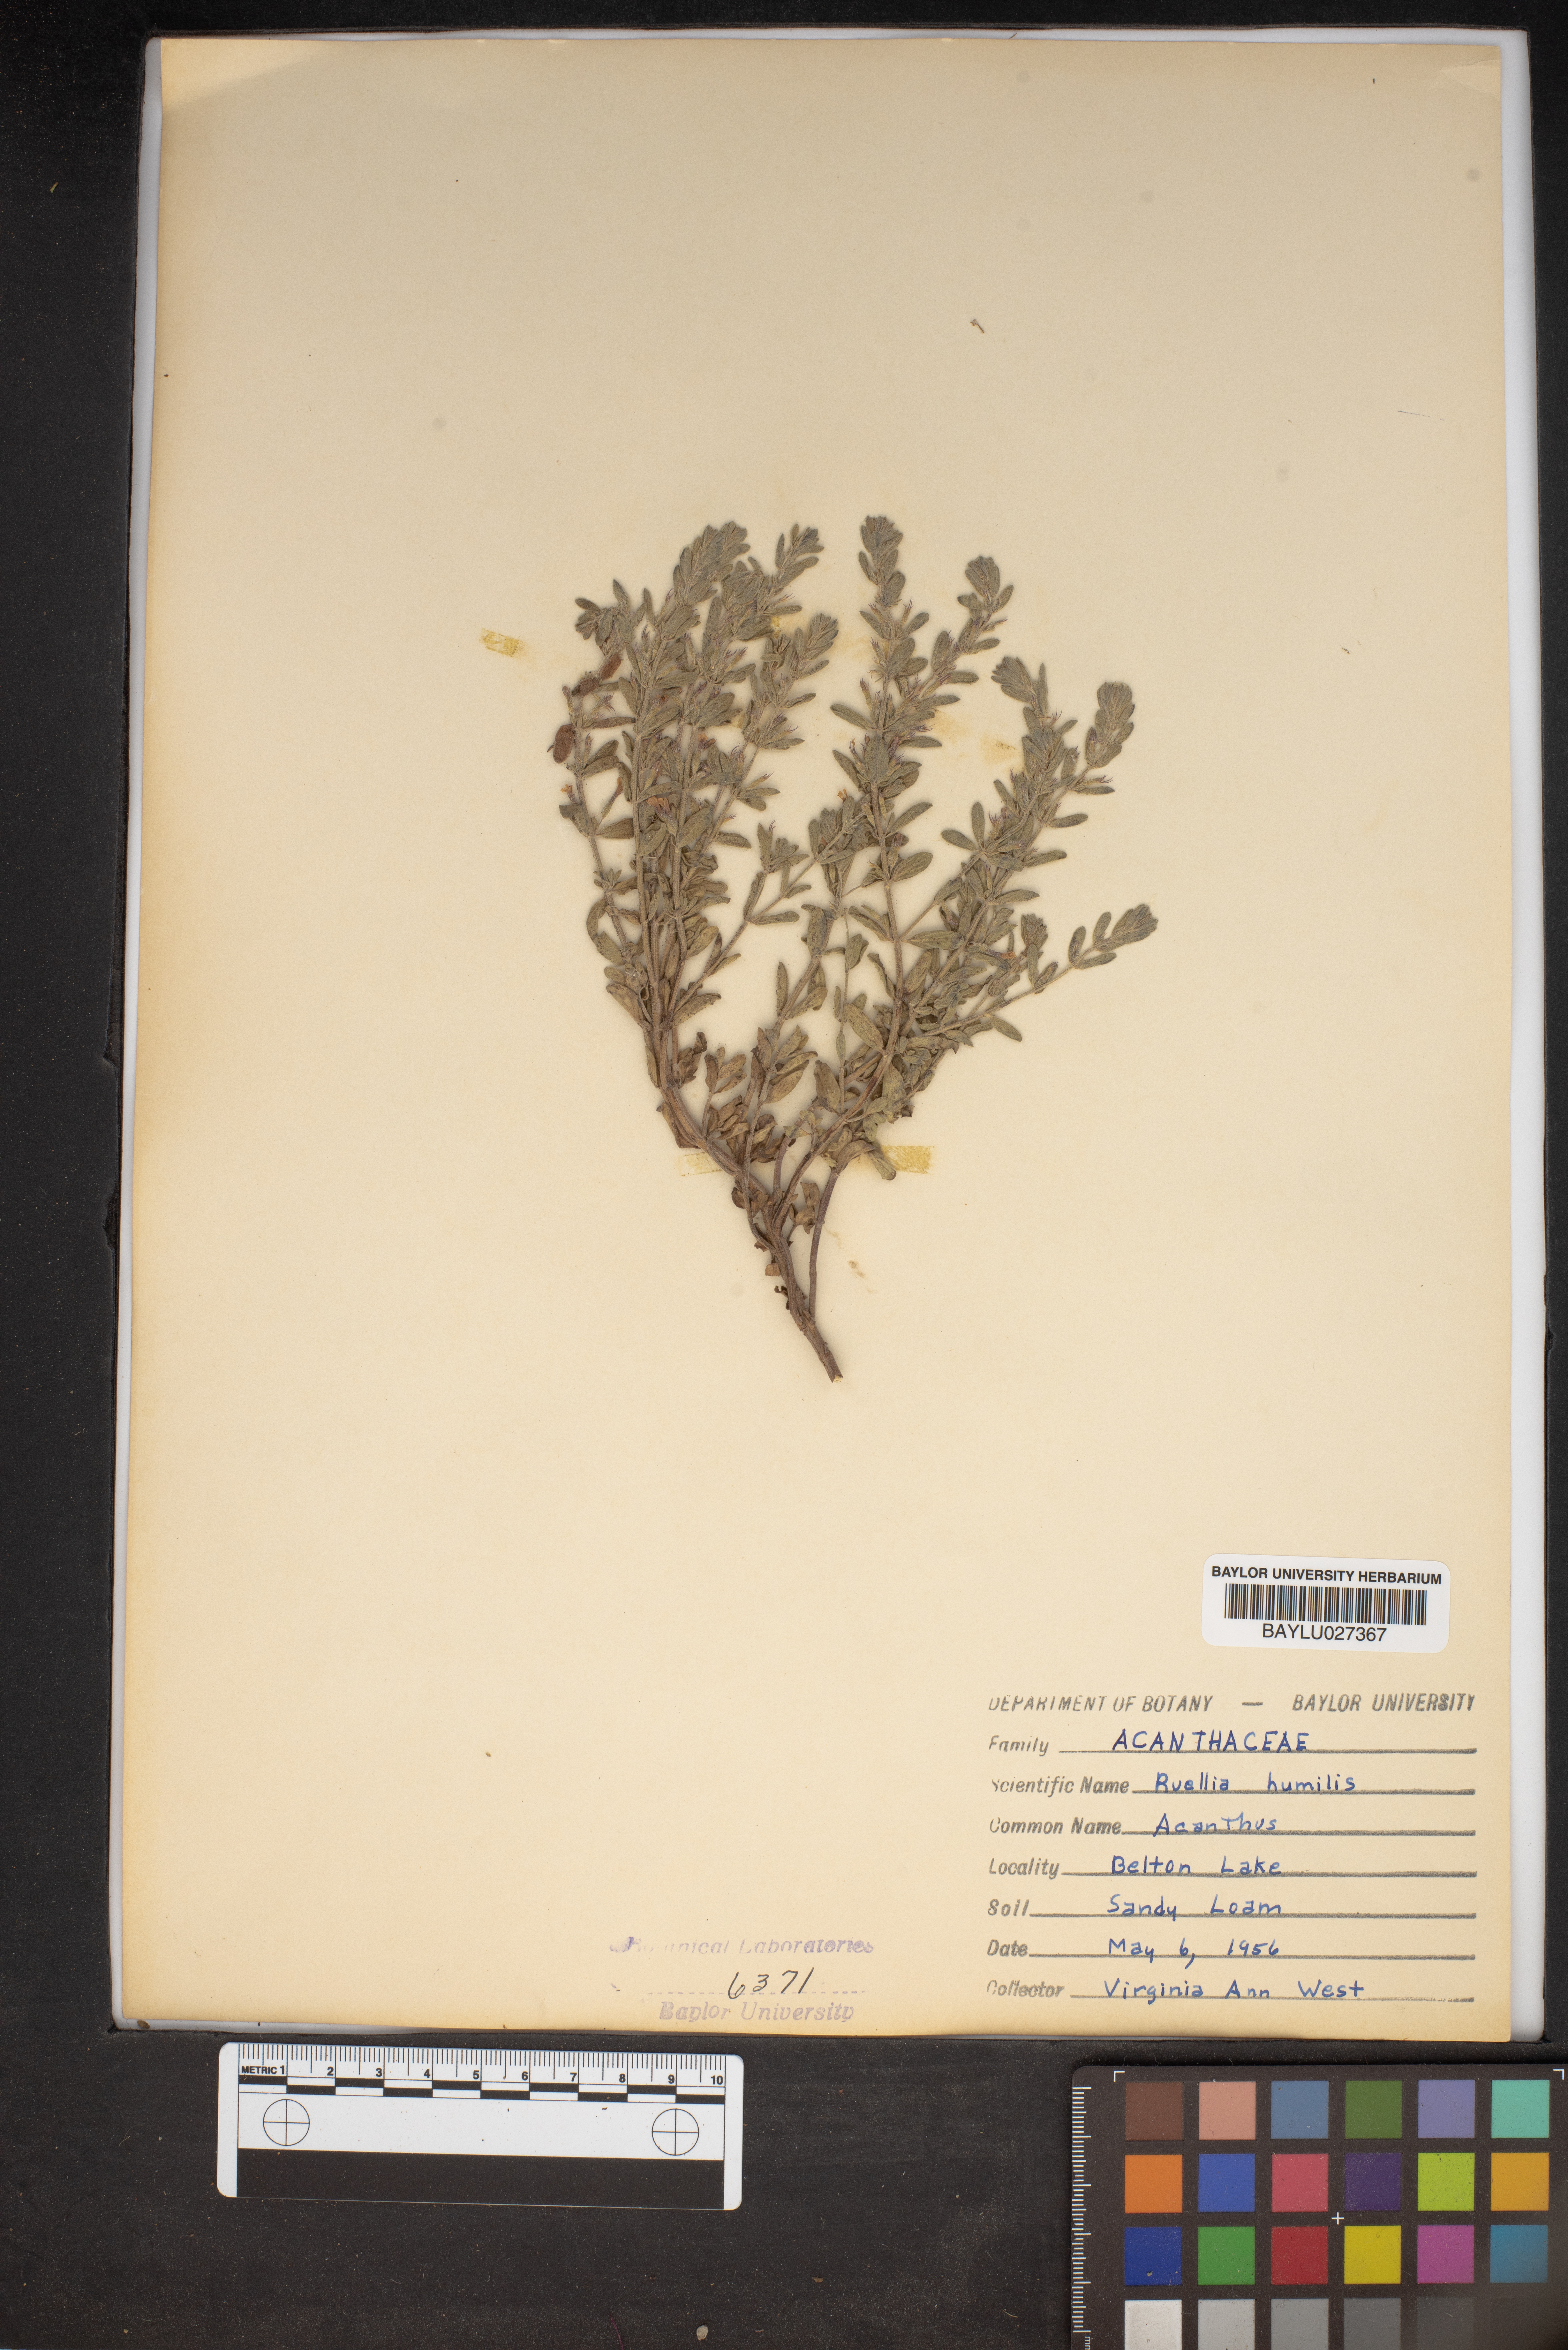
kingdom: Plantae
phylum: Tracheophyta
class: Magnoliopsida
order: Lamiales
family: Acanthaceae
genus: Ruellia
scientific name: Ruellia humilis
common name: Fringe-leaf ruellia
